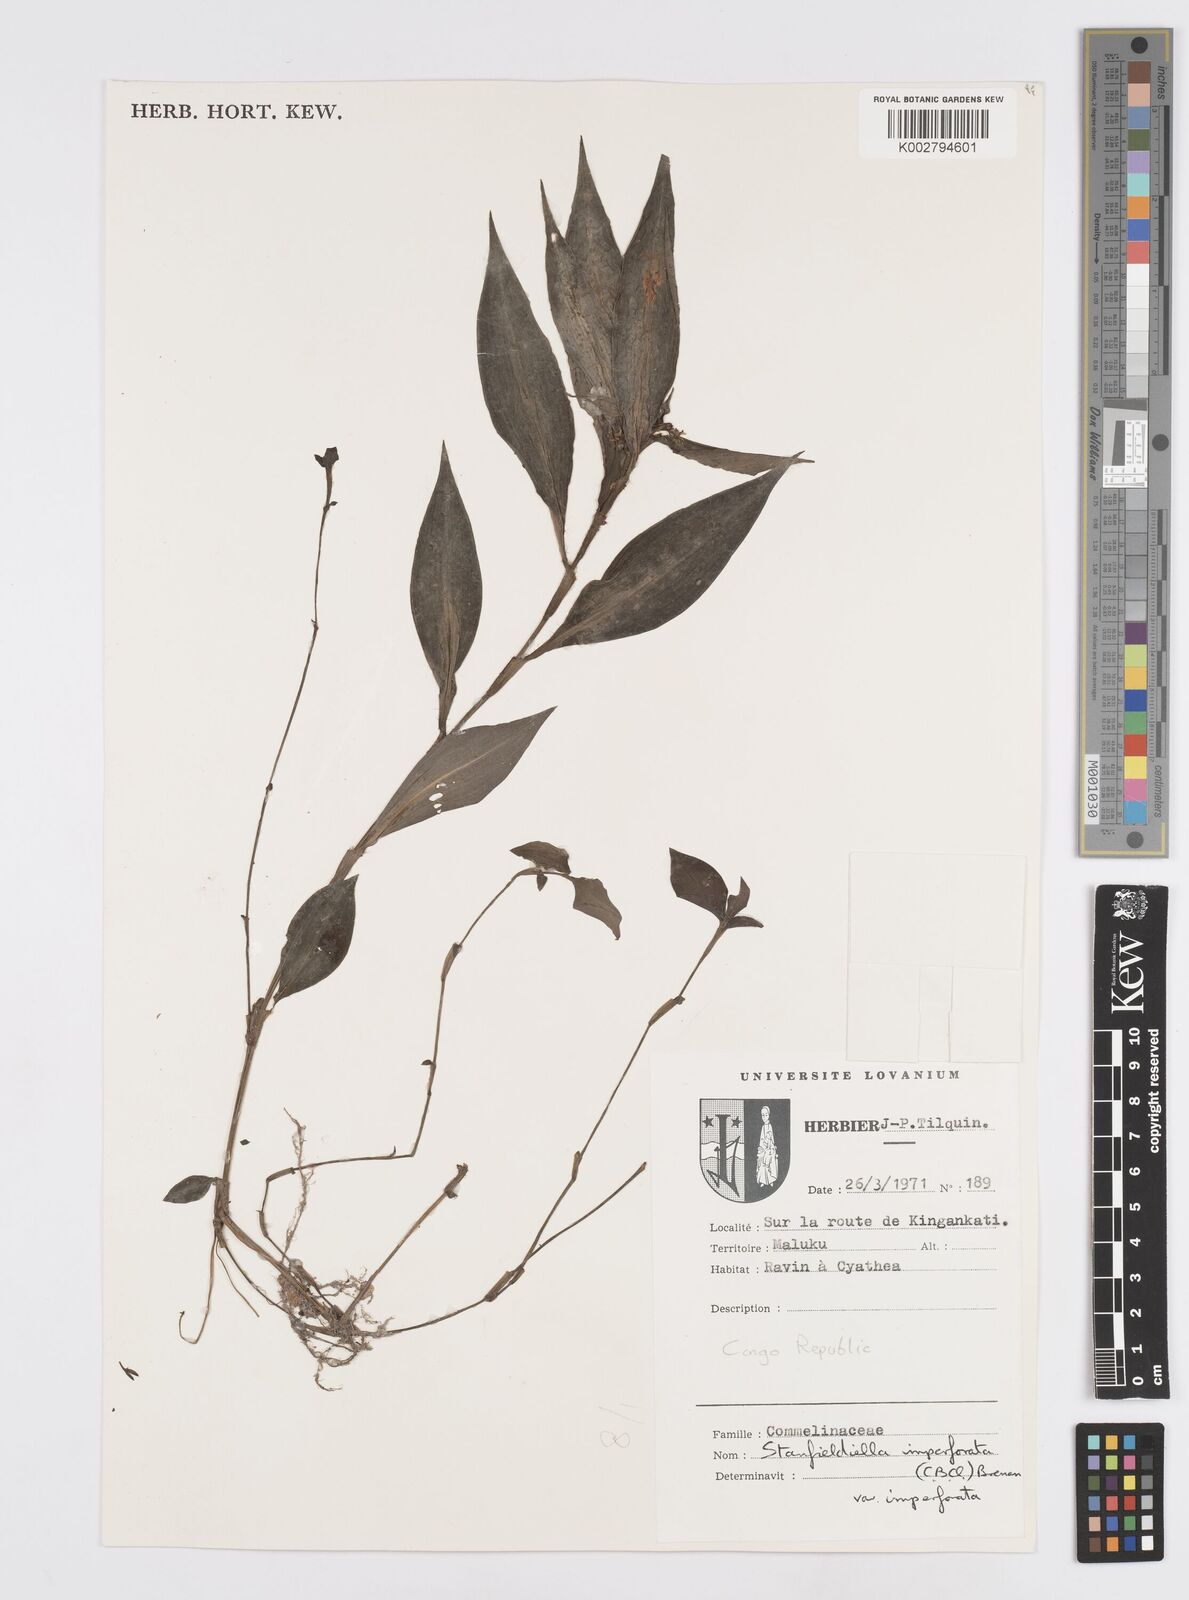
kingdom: Plantae
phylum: Tracheophyta
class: Liliopsida
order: Commelinales
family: Commelinaceae
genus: Stanfieldiella
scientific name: Stanfieldiella imperforata
